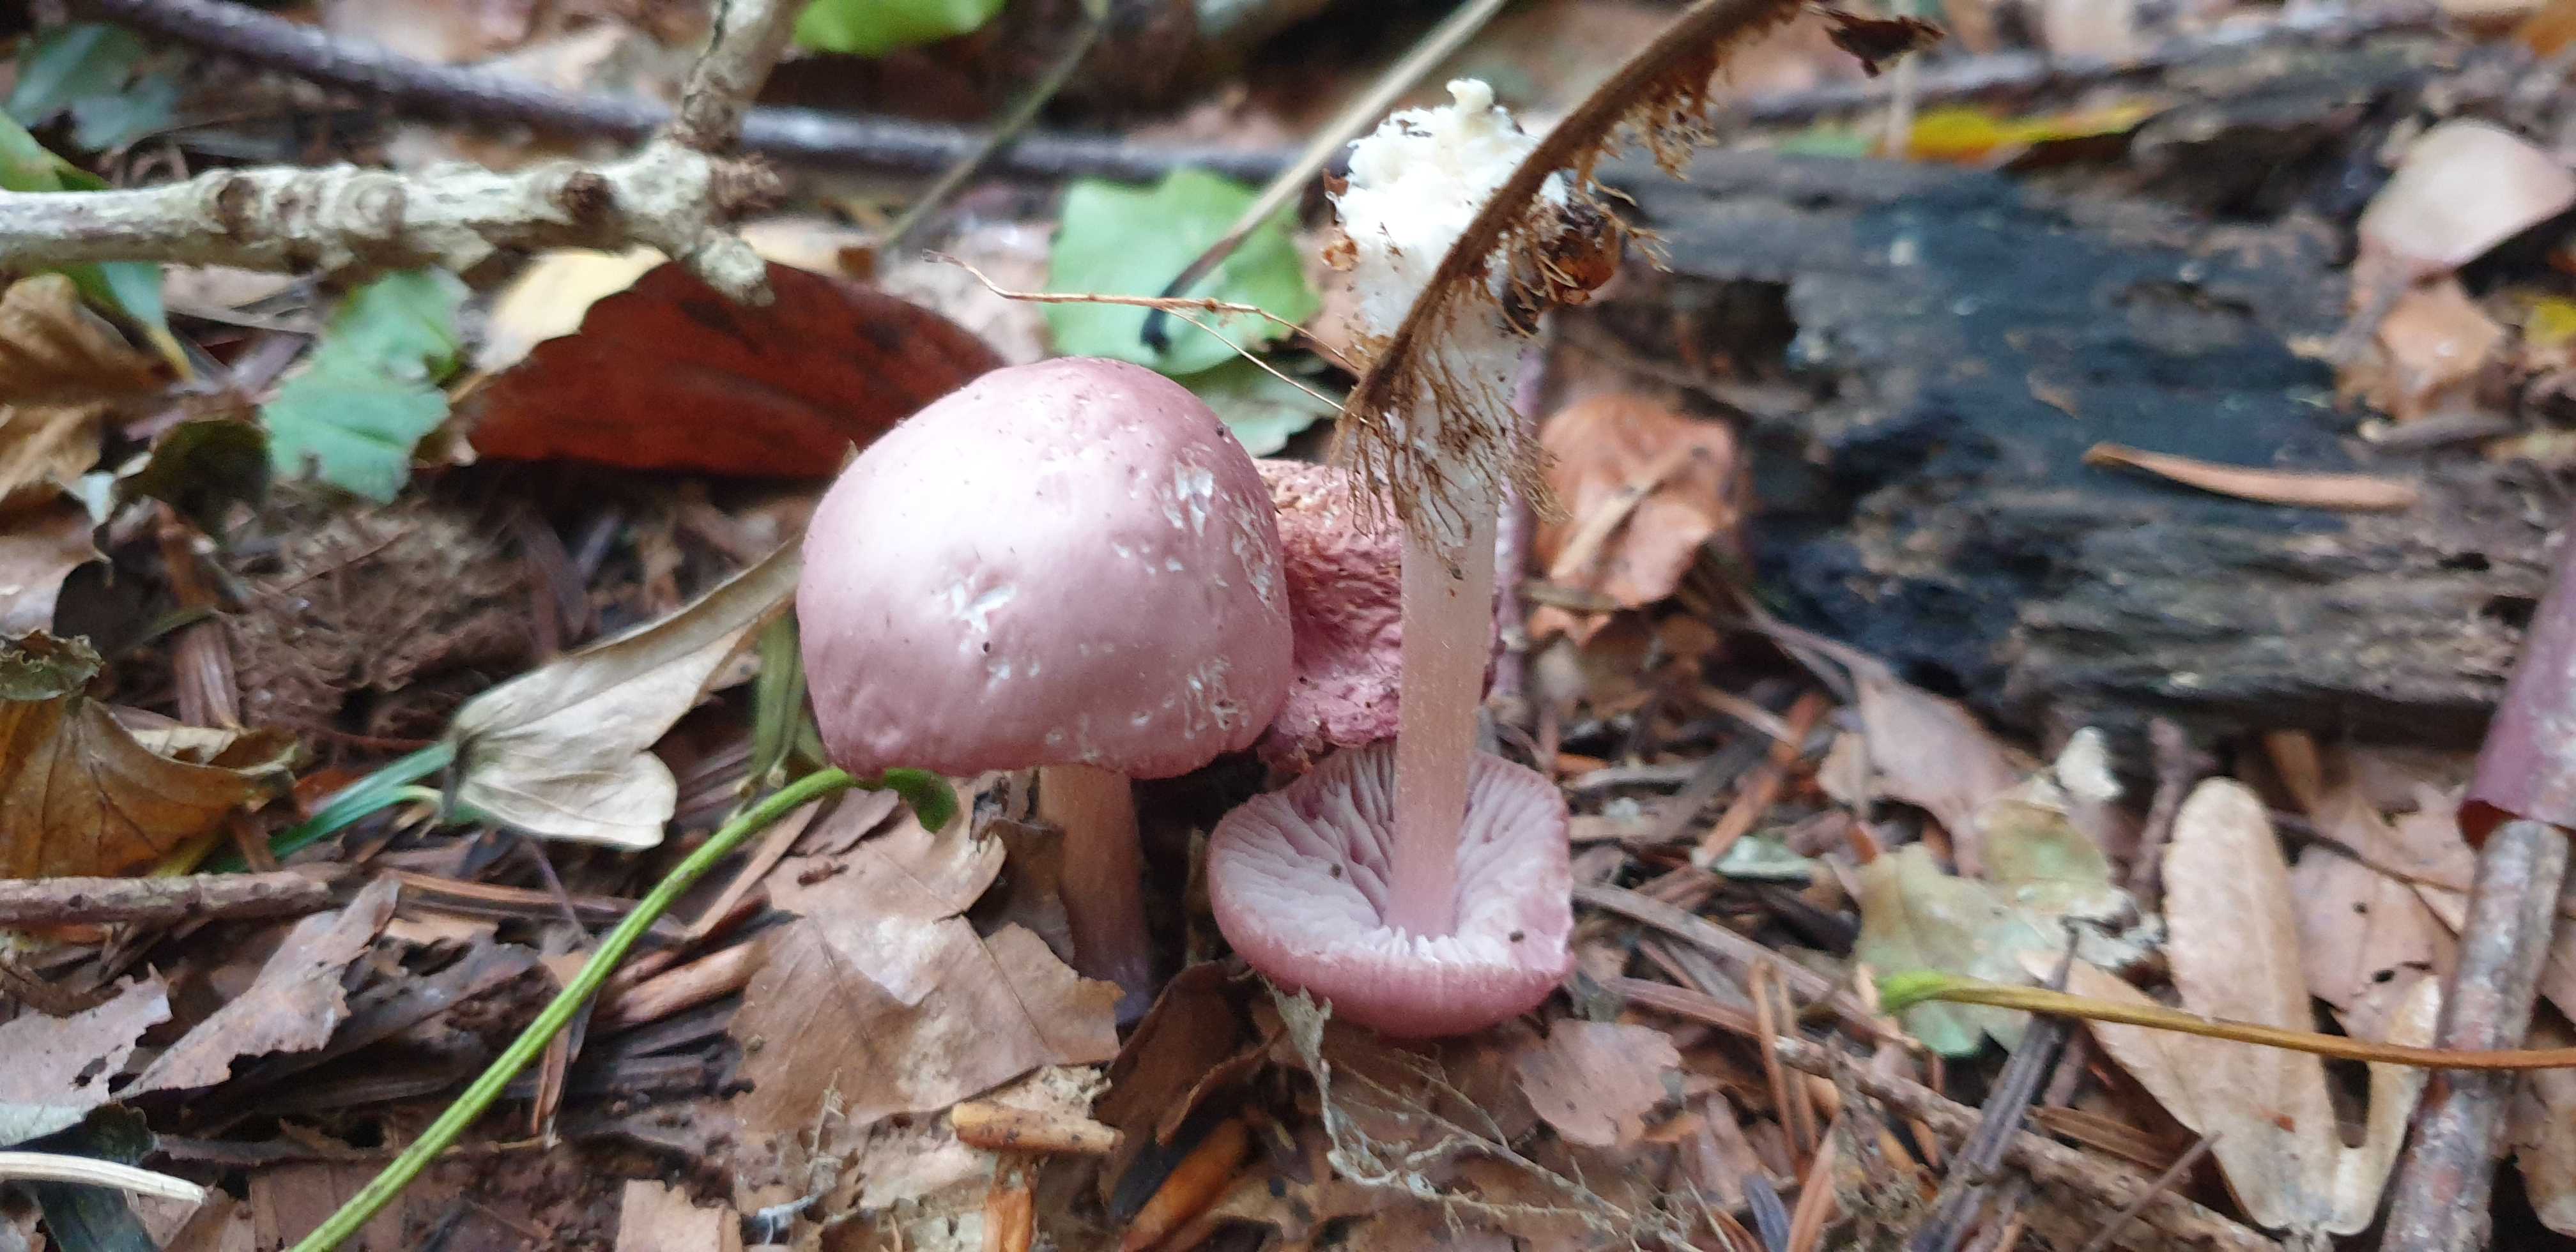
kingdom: Fungi
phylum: Basidiomycota
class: Agaricomycetes
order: Agaricales
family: Mycenaceae
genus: Mycena
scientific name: Mycena rosea
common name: rosa huesvamp
